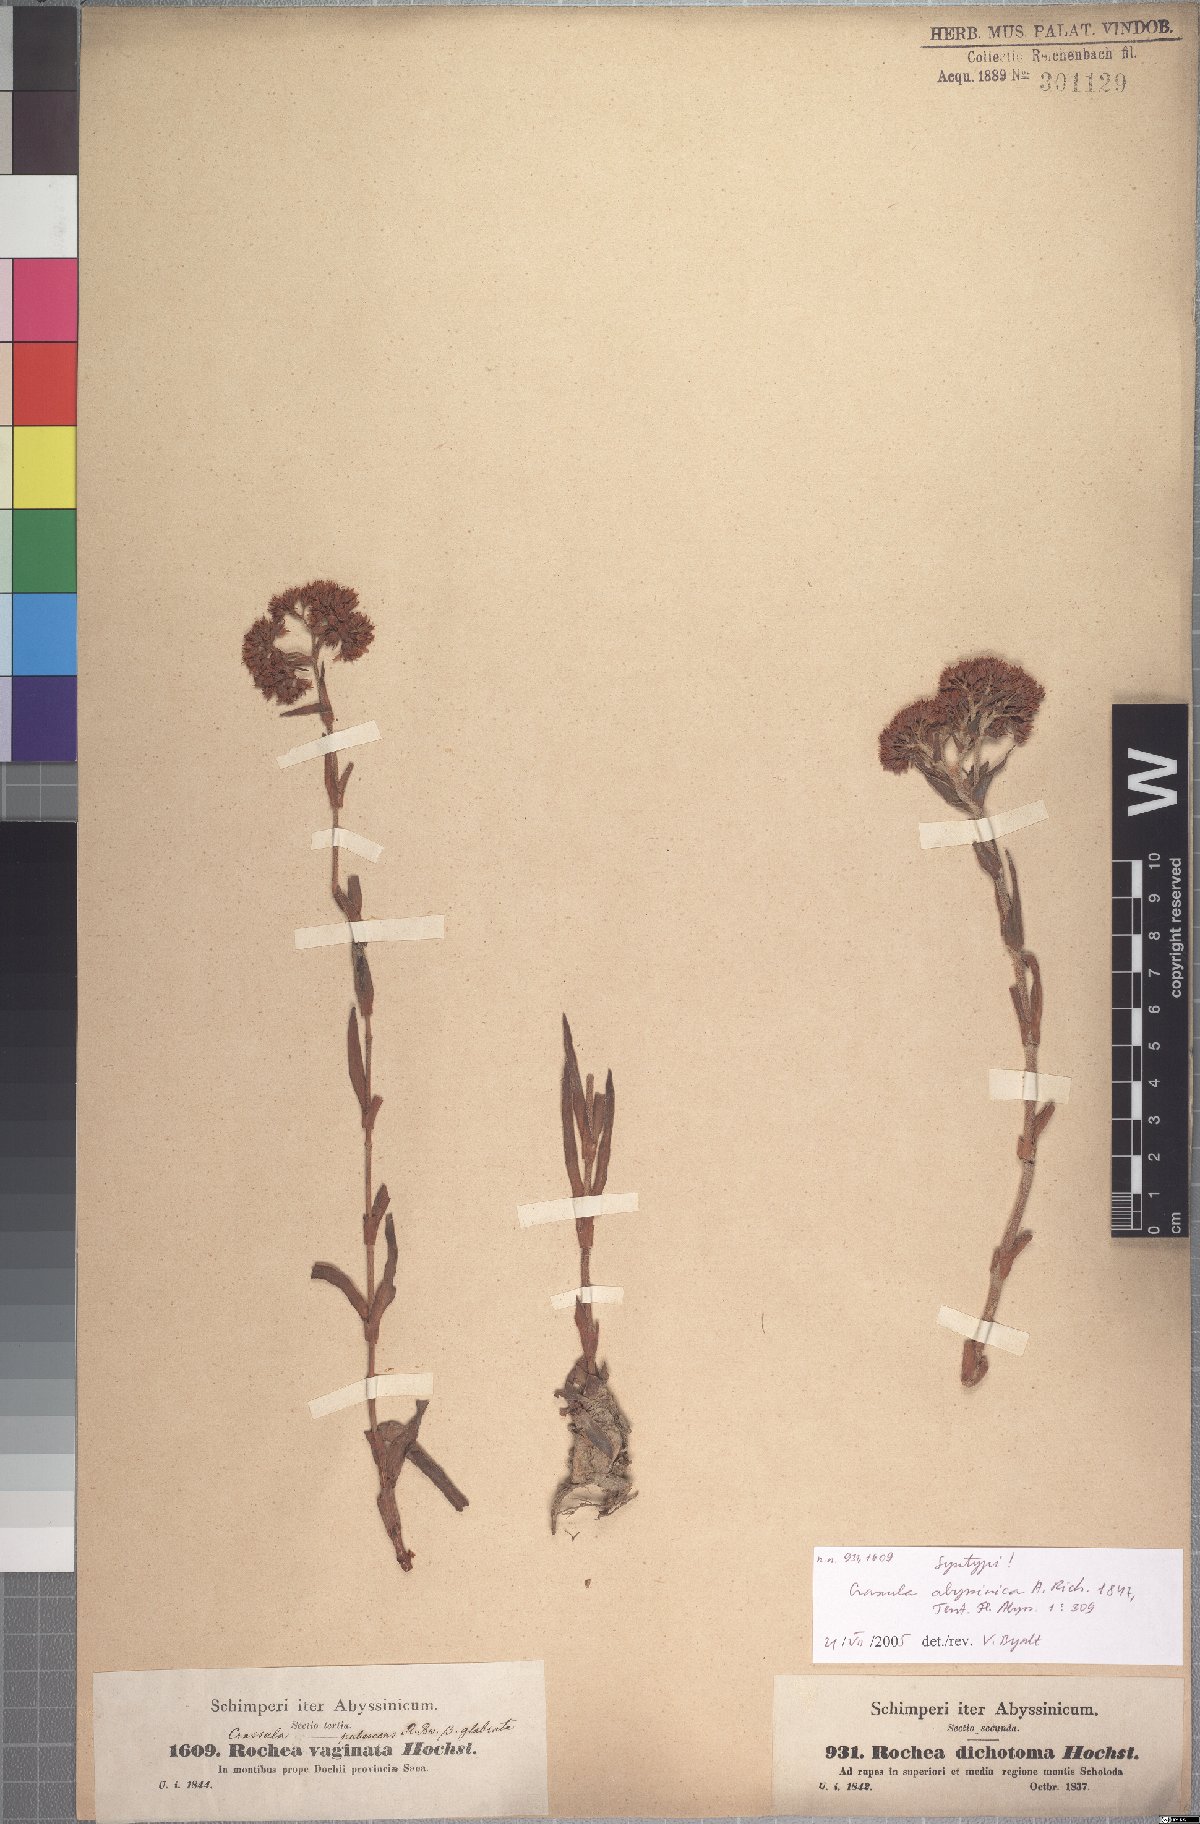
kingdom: Plantae
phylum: Tracheophyta
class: Magnoliopsida
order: Saxifragales
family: Crassulaceae
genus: Crassula
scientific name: Crassula alba
